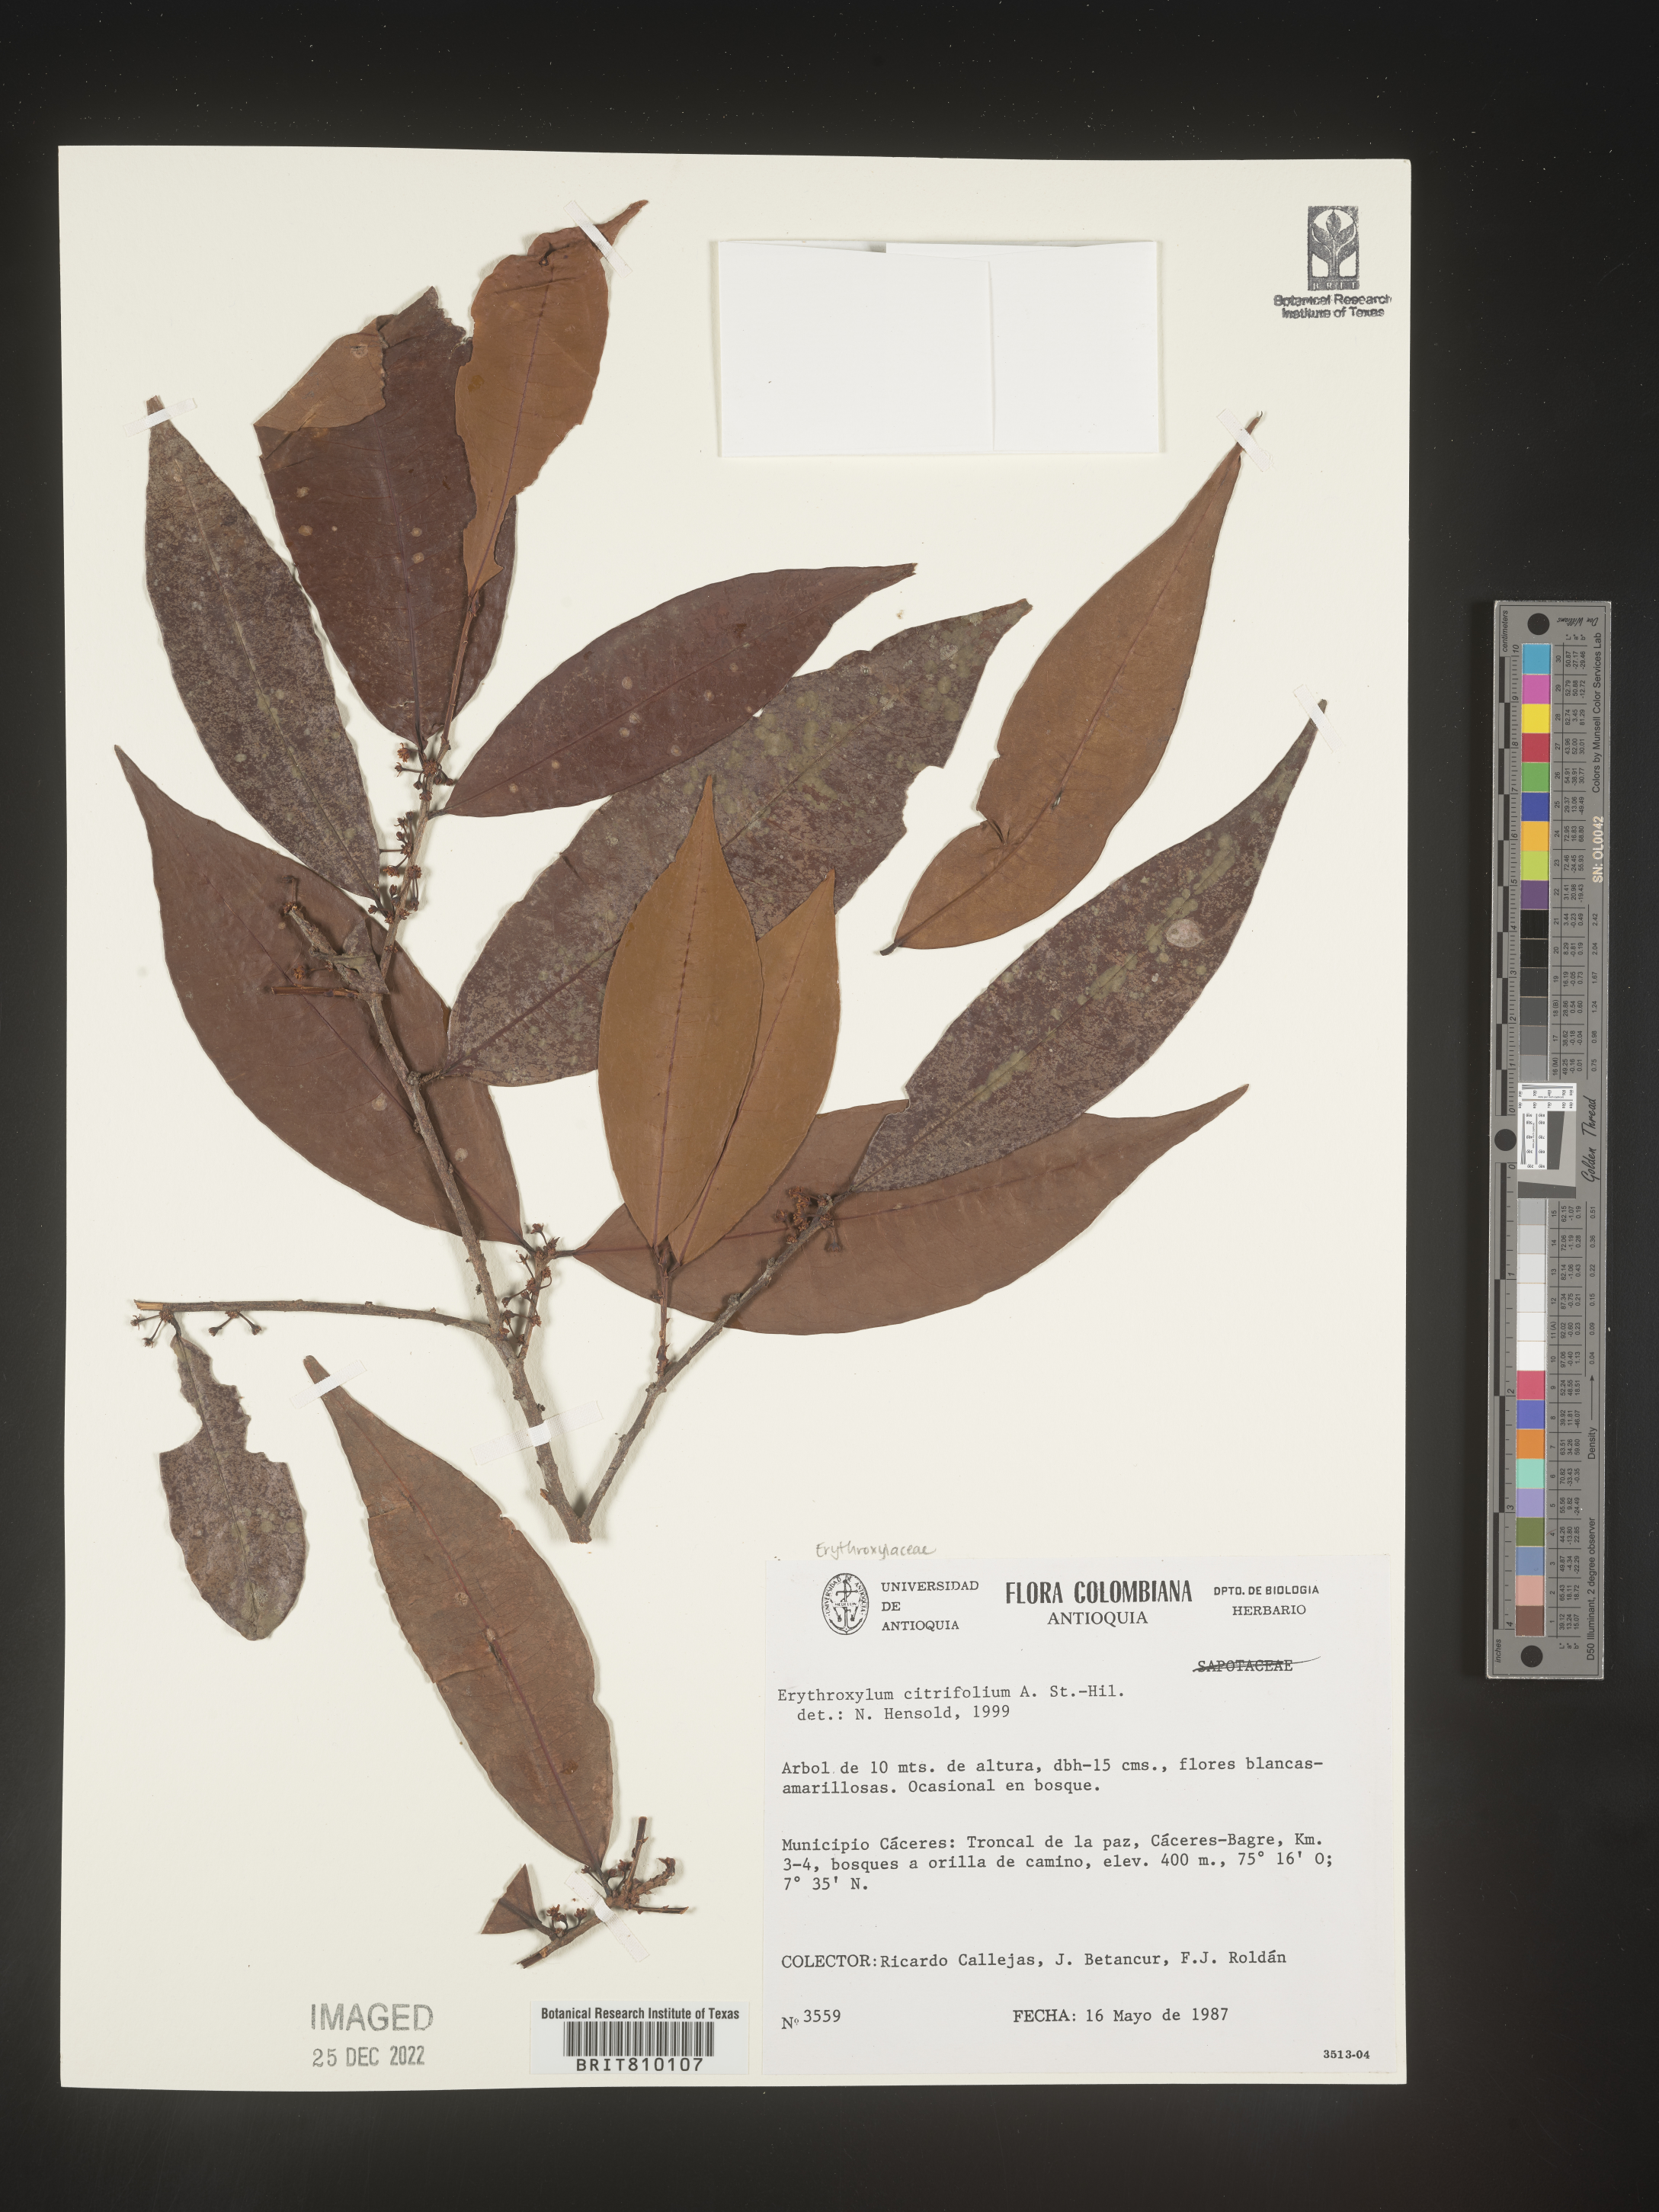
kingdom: Plantae
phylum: Tracheophyta
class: Magnoliopsida
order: Malpighiales
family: Erythroxylaceae
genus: Erythroxylum
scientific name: Erythroxylum
